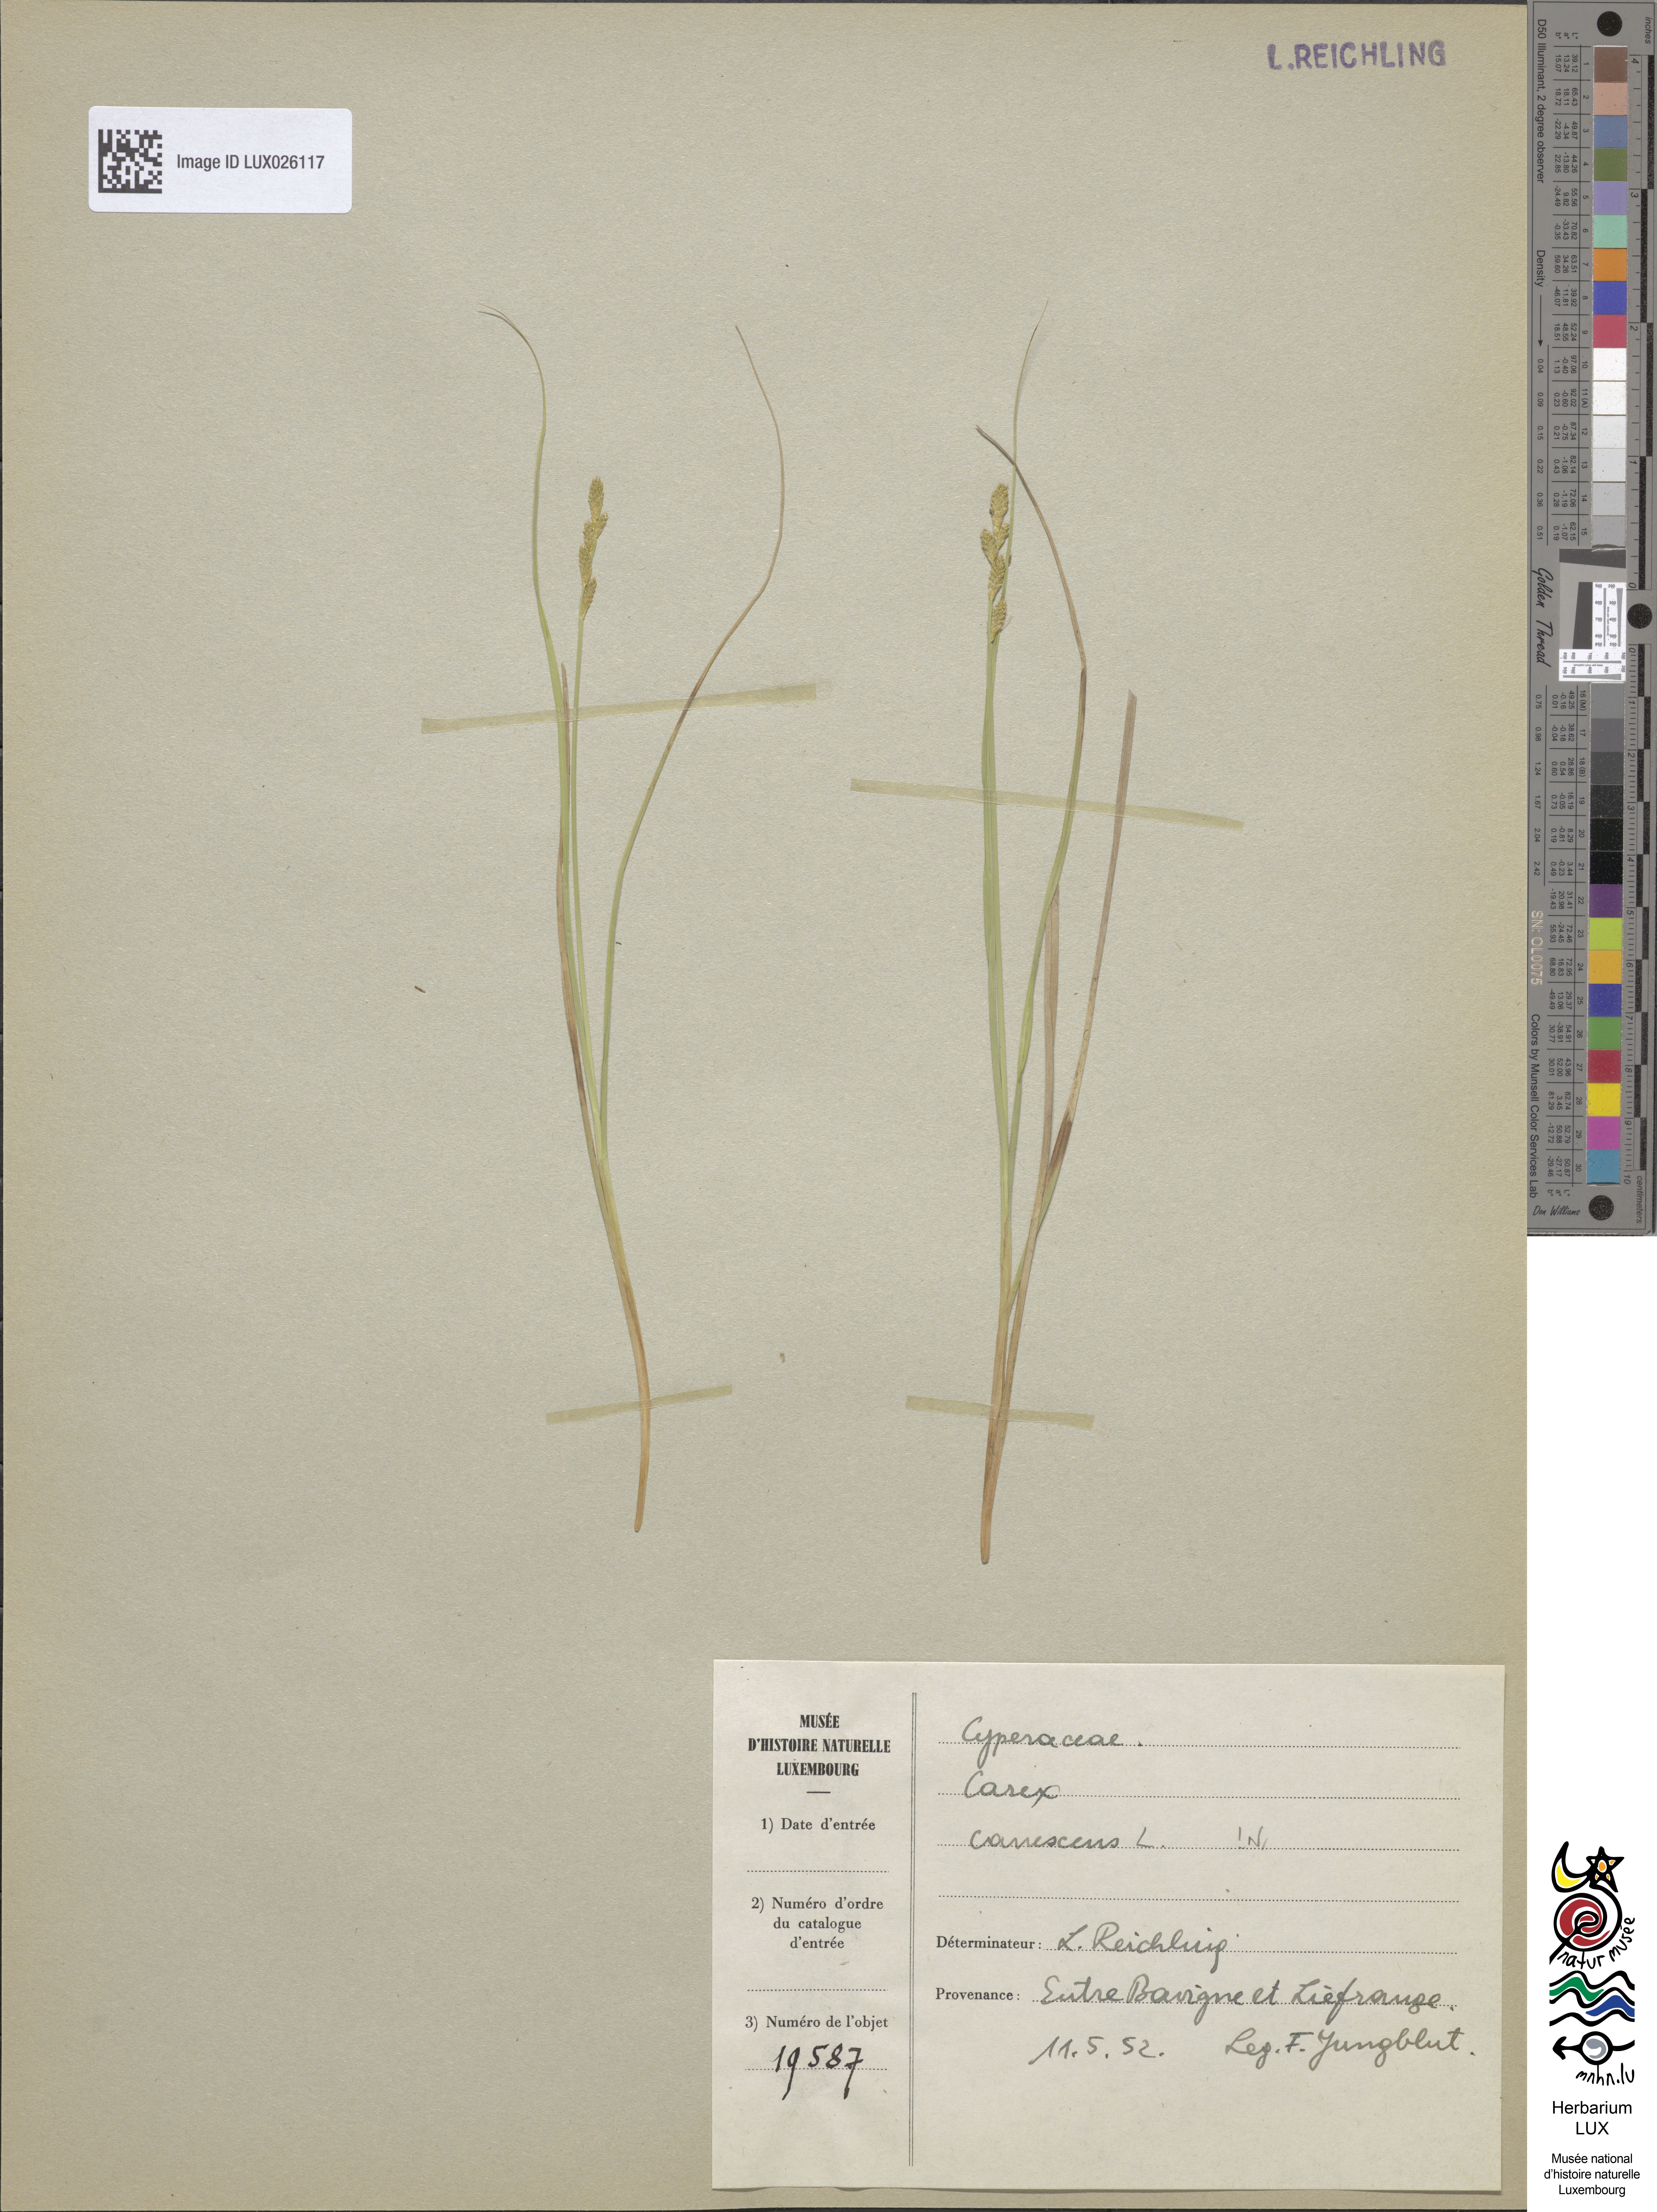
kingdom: Plantae
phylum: Tracheophyta
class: Liliopsida
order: Poales
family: Cyperaceae
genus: Carex
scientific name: Carex canescens
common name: White sedge
